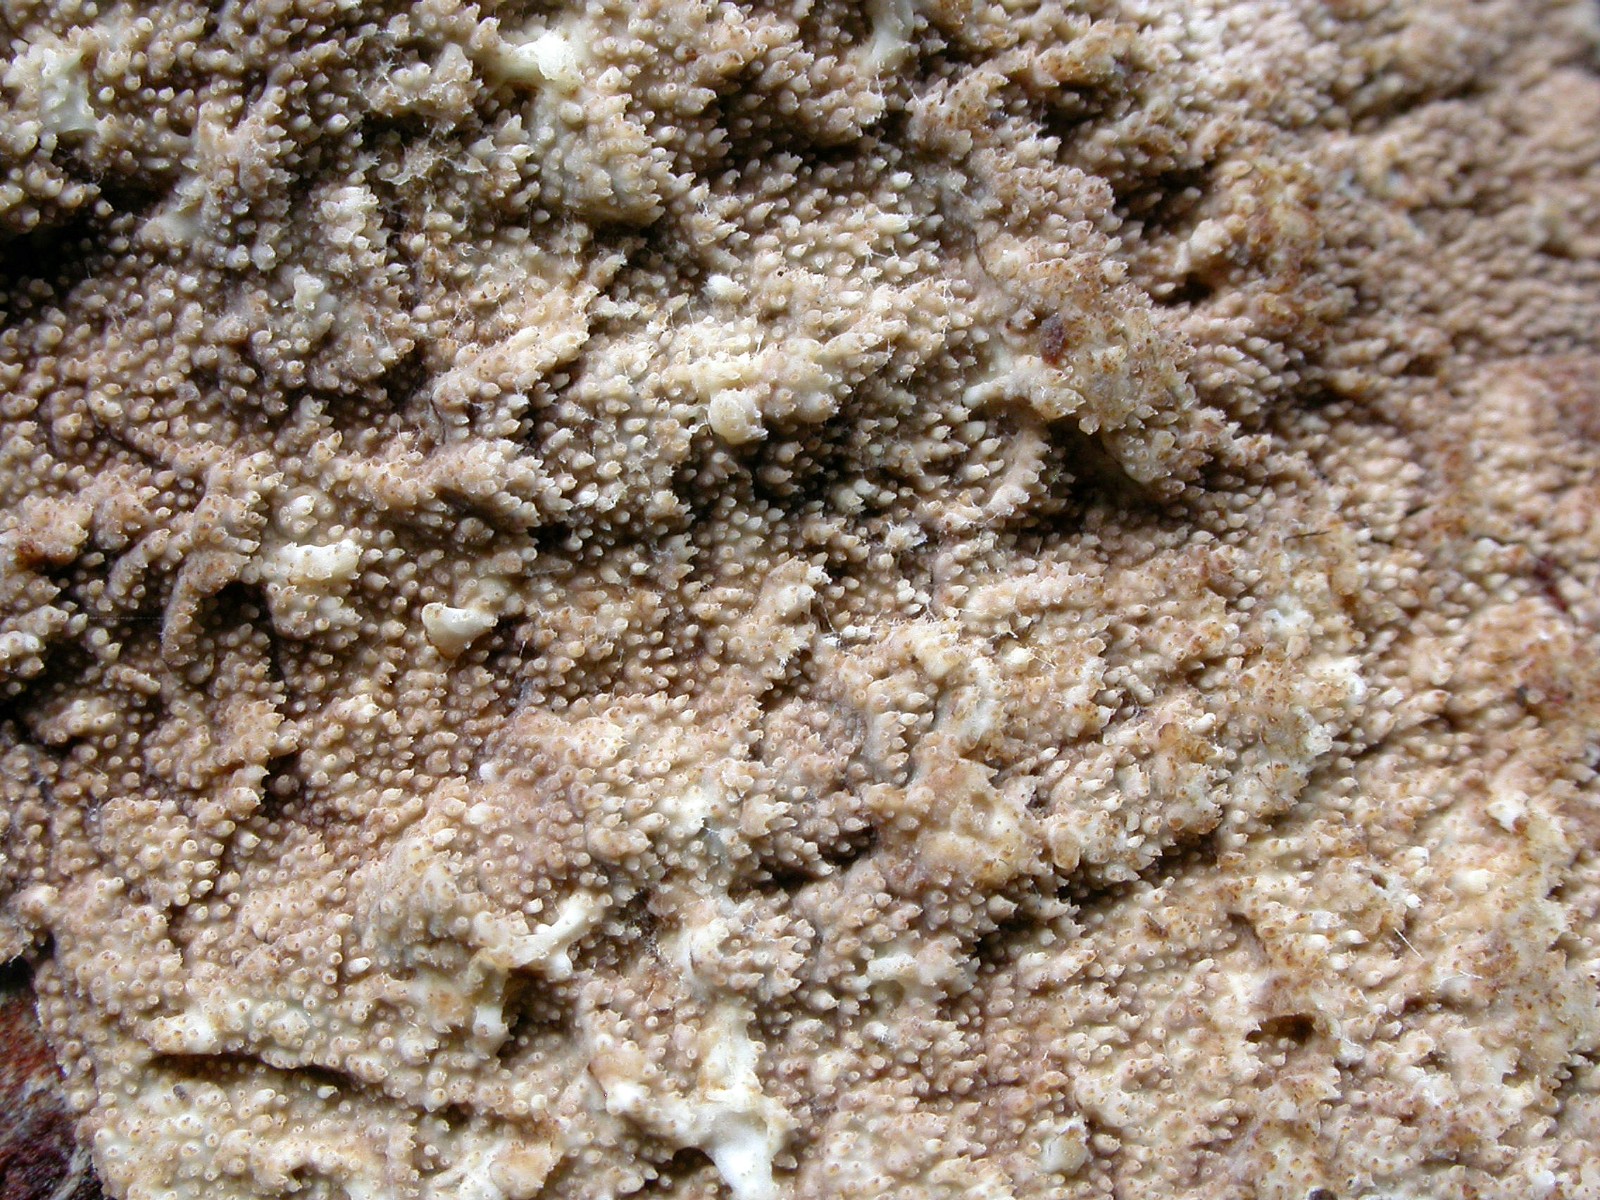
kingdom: Fungi
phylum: Basidiomycota
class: Agaricomycetes
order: Hymenochaetales
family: Rickenellaceae
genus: Resinicium
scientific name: Resinicium bicolor
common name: almindelig vokstand
